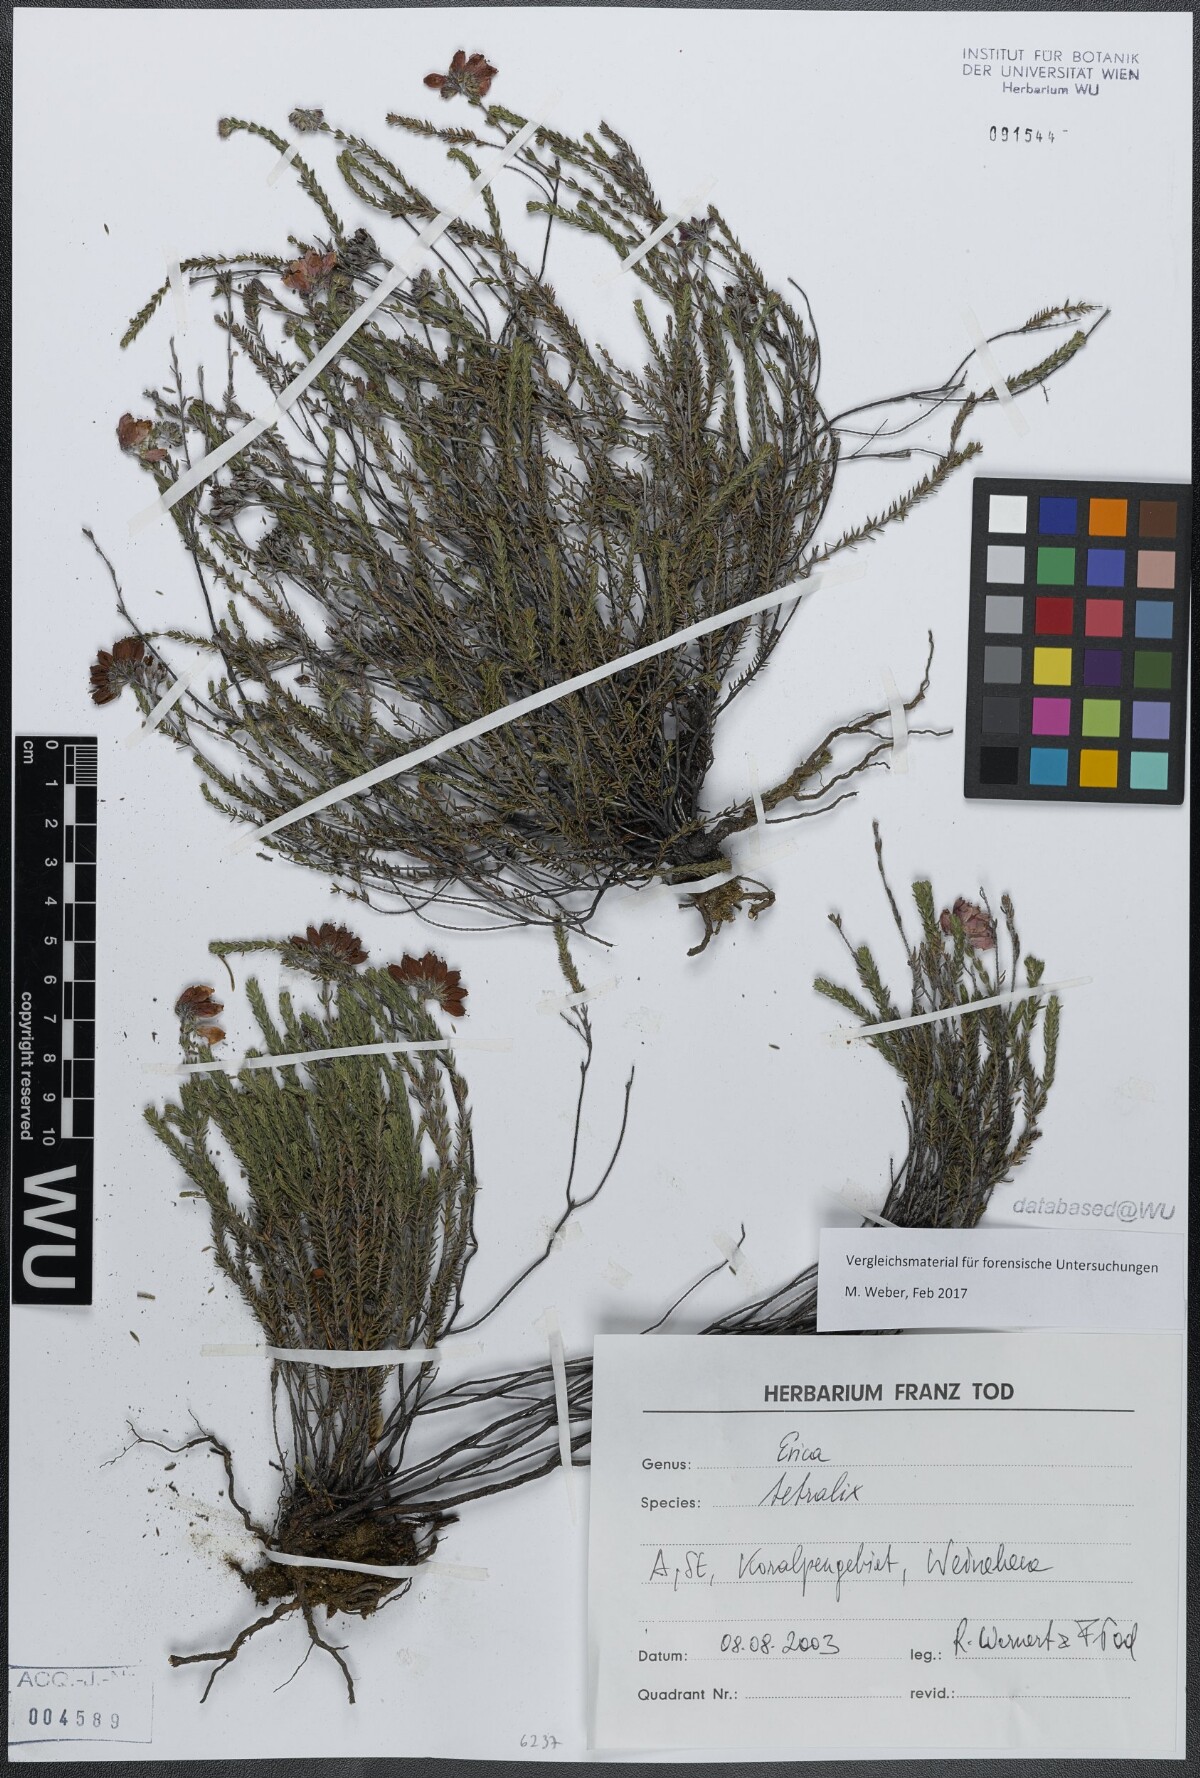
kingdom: Plantae
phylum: Tracheophyta
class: Magnoliopsida
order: Ericales
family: Ericaceae
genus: Erica
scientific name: Erica tetralix
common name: Cross-leaved heath
